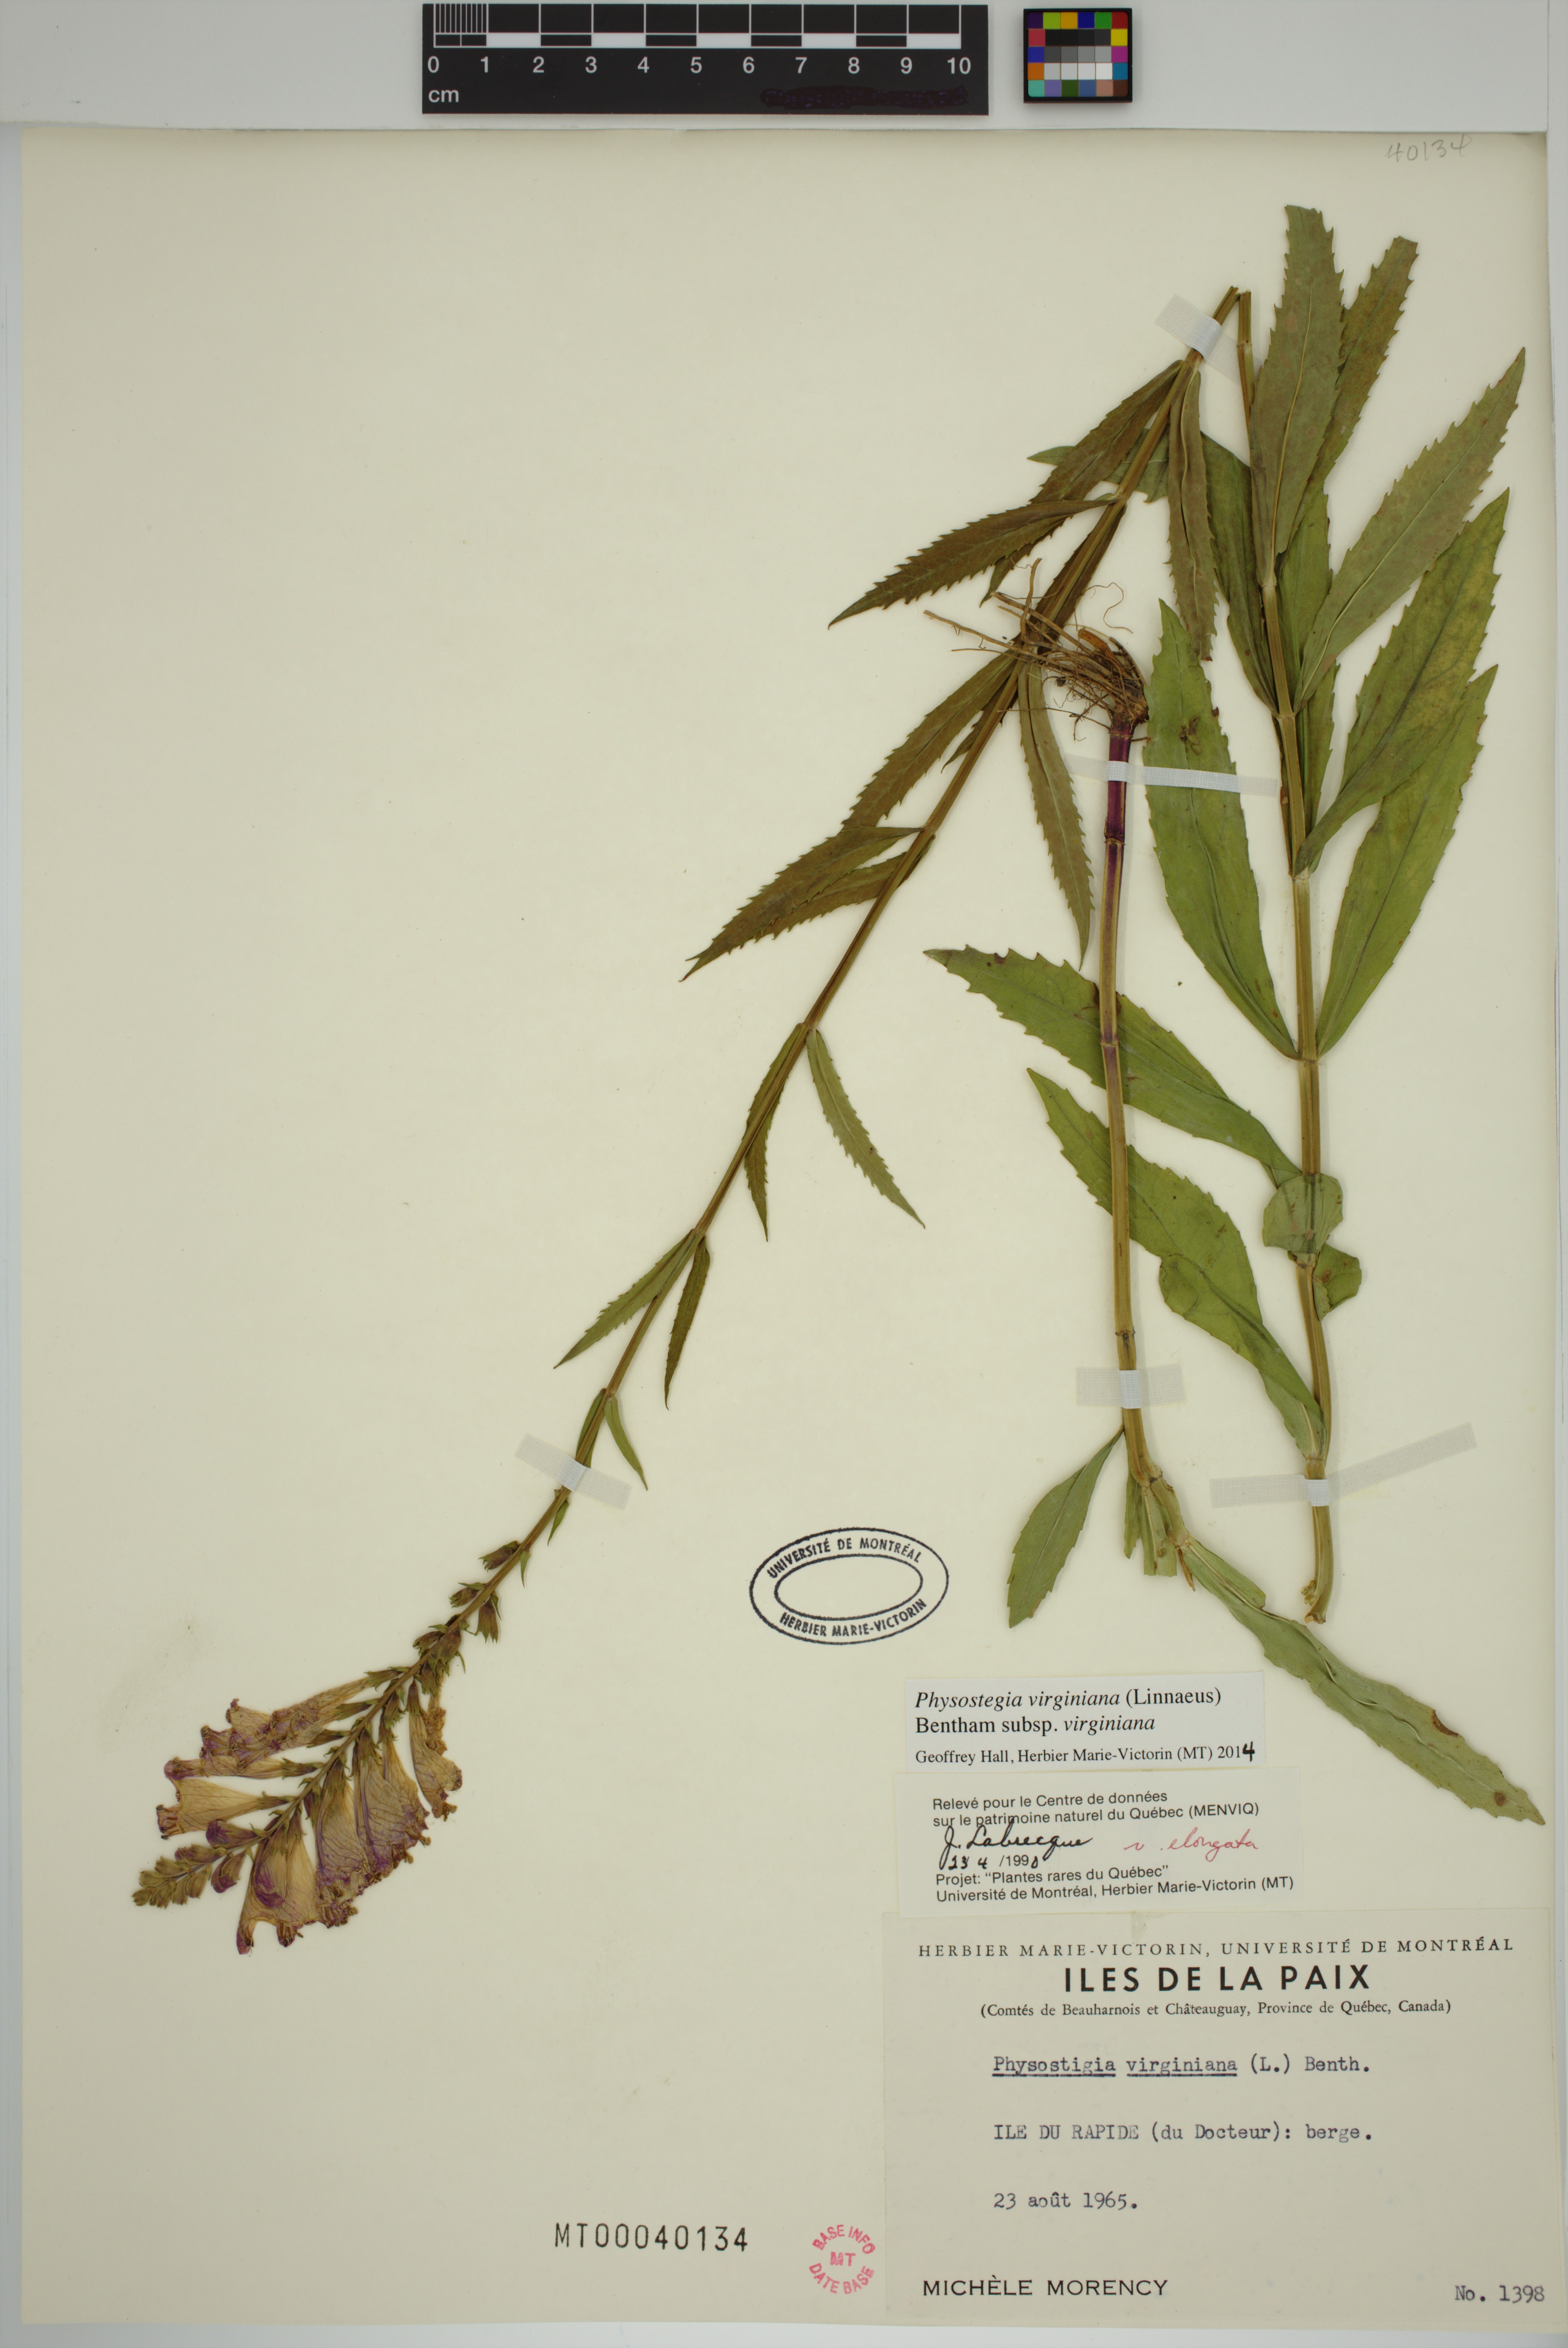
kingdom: Plantae
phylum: Tracheophyta
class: Magnoliopsida
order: Lamiales
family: Lamiaceae
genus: Physostegia
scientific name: Physostegia virginiana
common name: Obedient-plant
